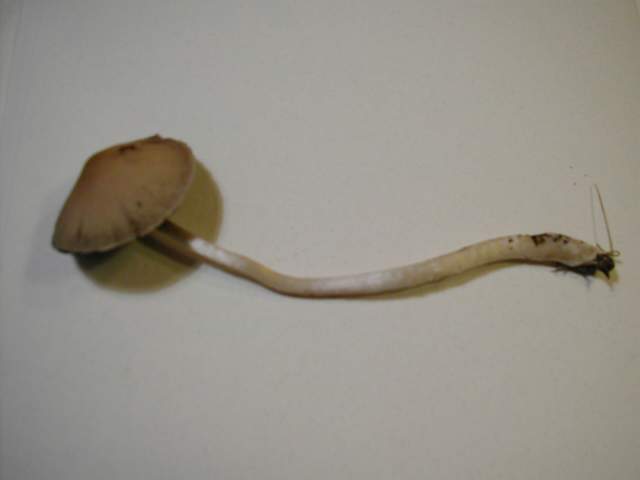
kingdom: Fungi
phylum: Basidiomycota
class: Agaricomycetes
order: Agaricales
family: Psathyrellaceae
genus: Coprinopsis
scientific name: Coprinopsis marcescibilis
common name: ruderat-blækhat
